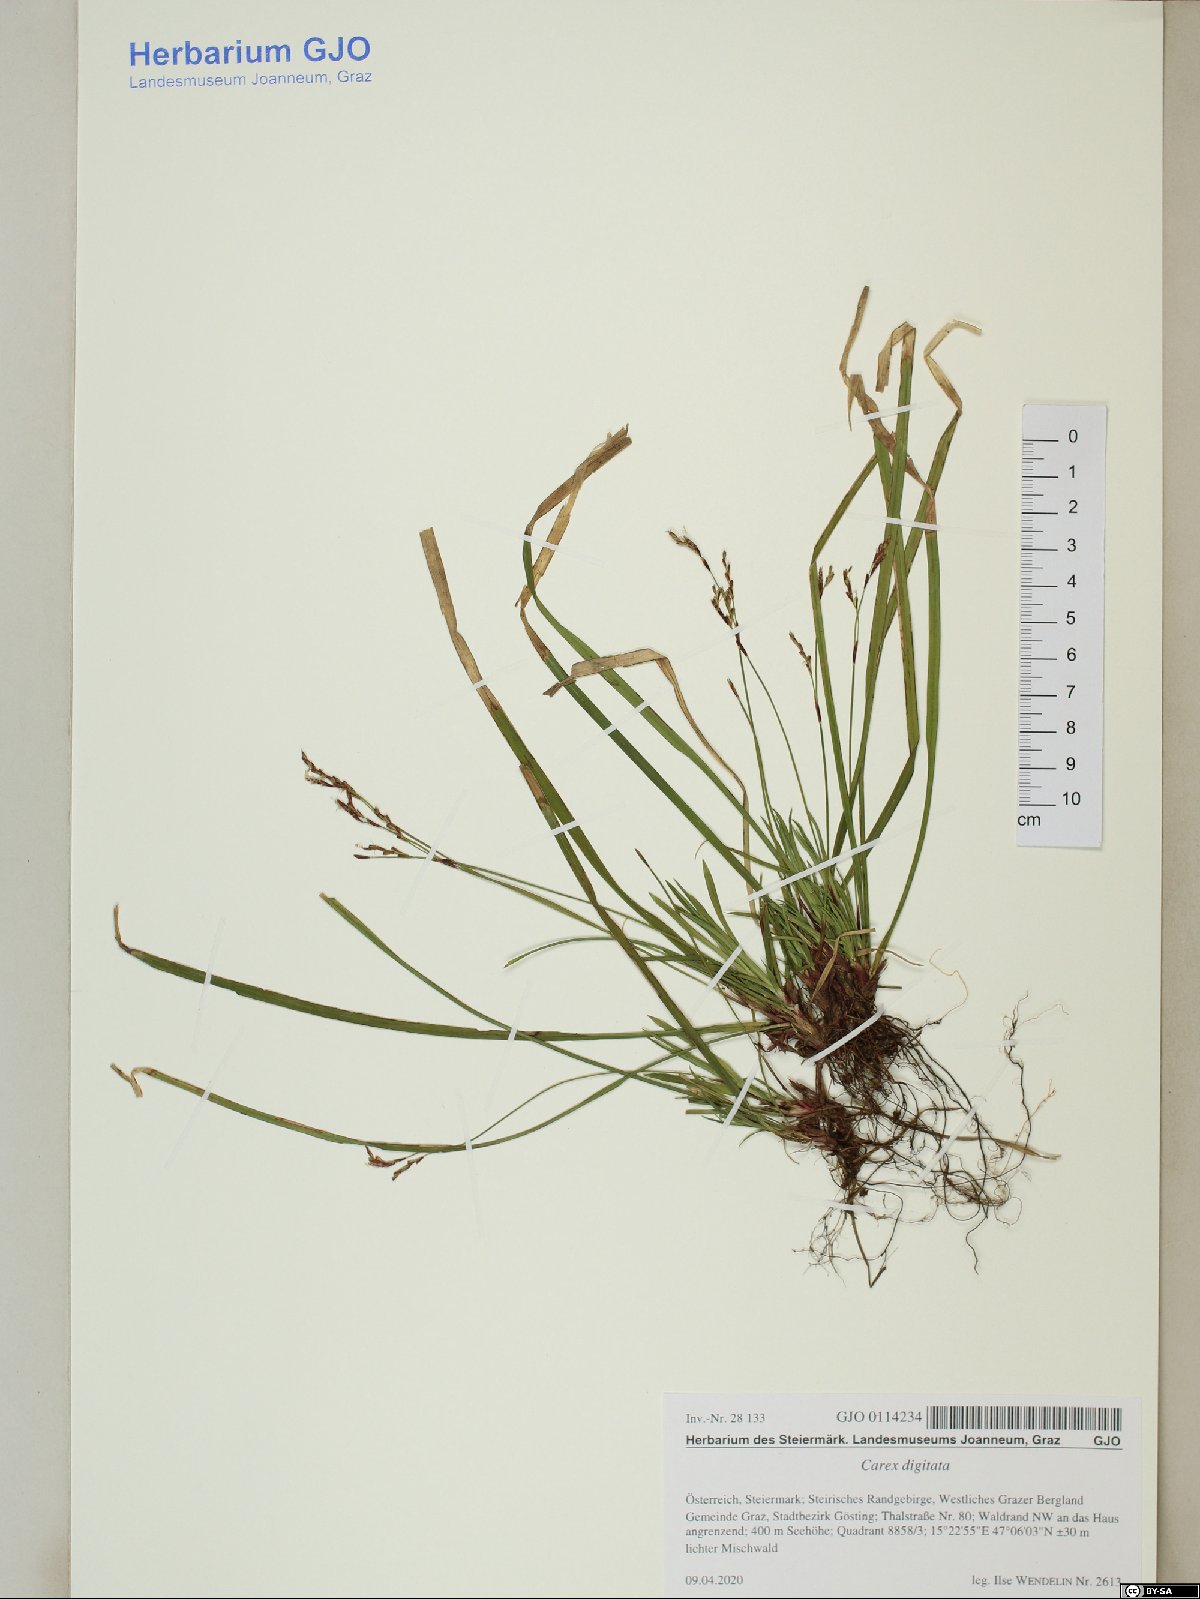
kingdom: Plantae
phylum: Tracheophyta
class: Liliopsida
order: Poales
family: Cyperaceae
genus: Carex
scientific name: Carex digitata
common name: Fingered sedge
